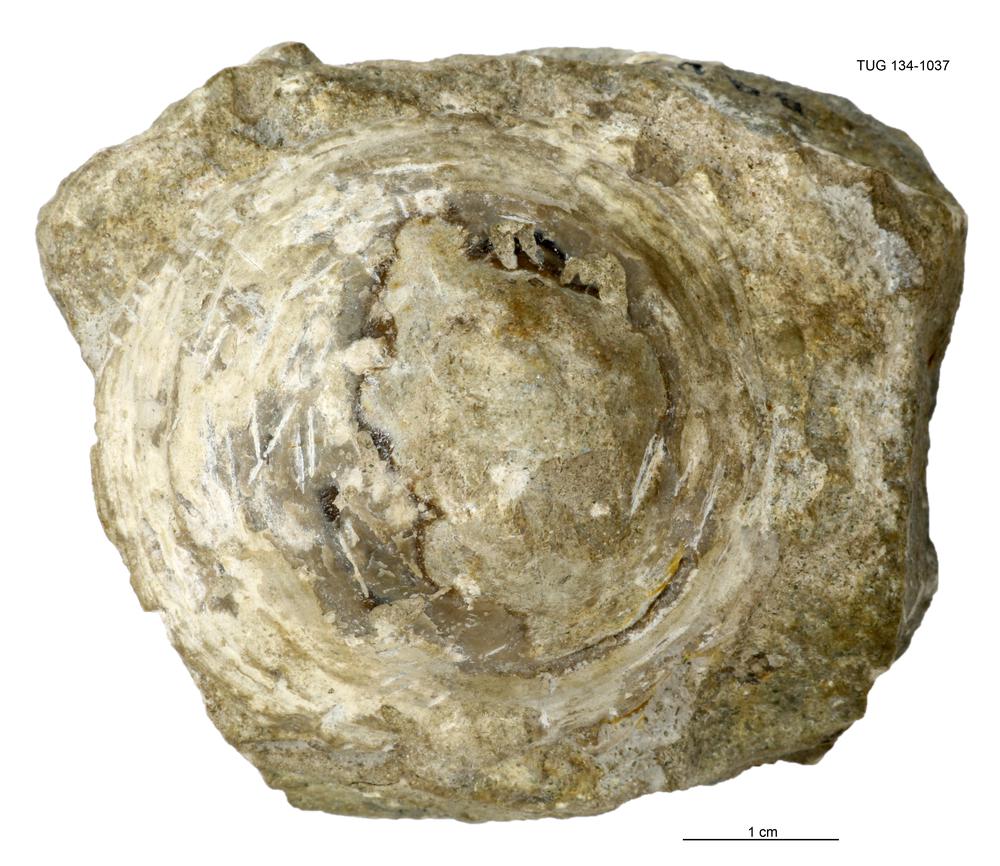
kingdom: Animalia
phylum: Mollusca
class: Monoplacophora
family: Metoptomatidae
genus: Metoptoma
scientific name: Metoptoma
